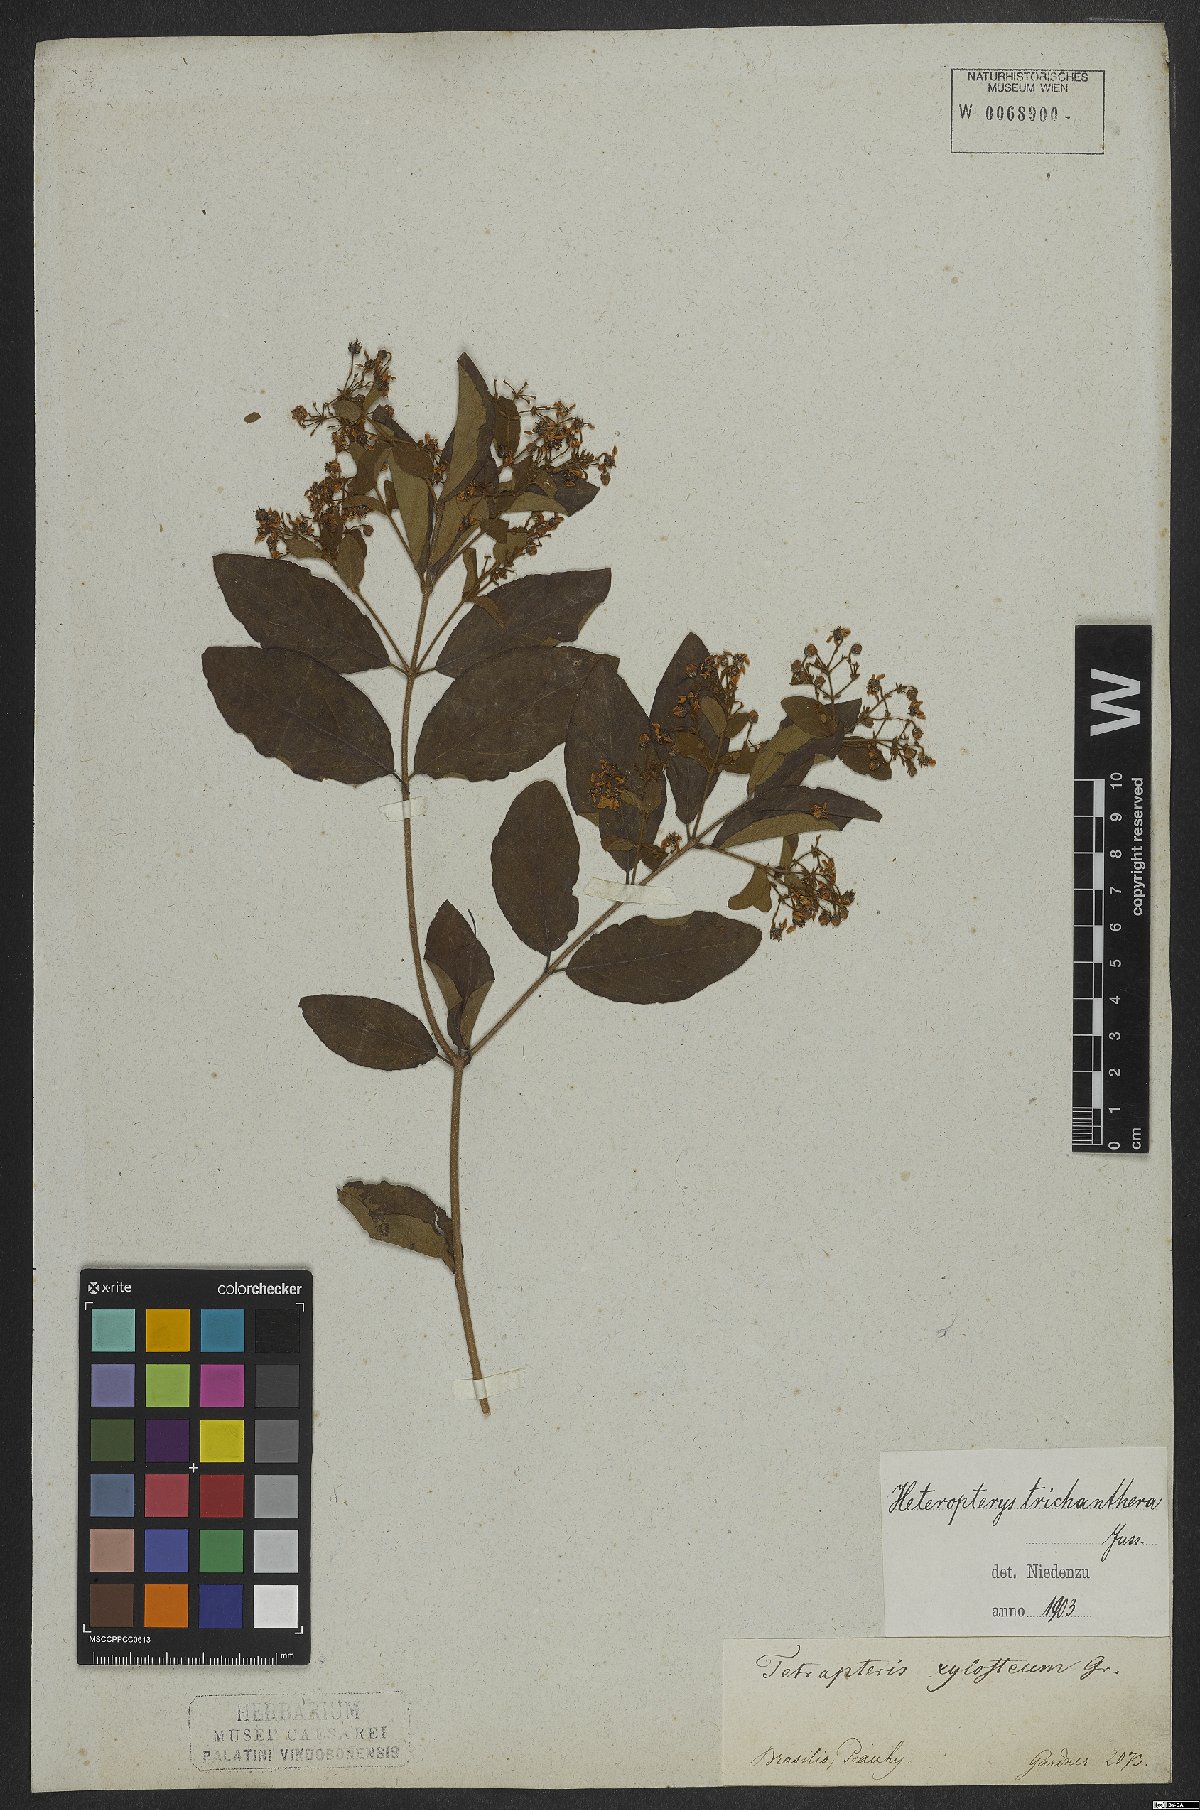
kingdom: Plantae
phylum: Tracheophyta
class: Magnoliopsida
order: Malpighiales
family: Malpighiaceae
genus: Heteropterys
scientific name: Heteropterys trichanthera
